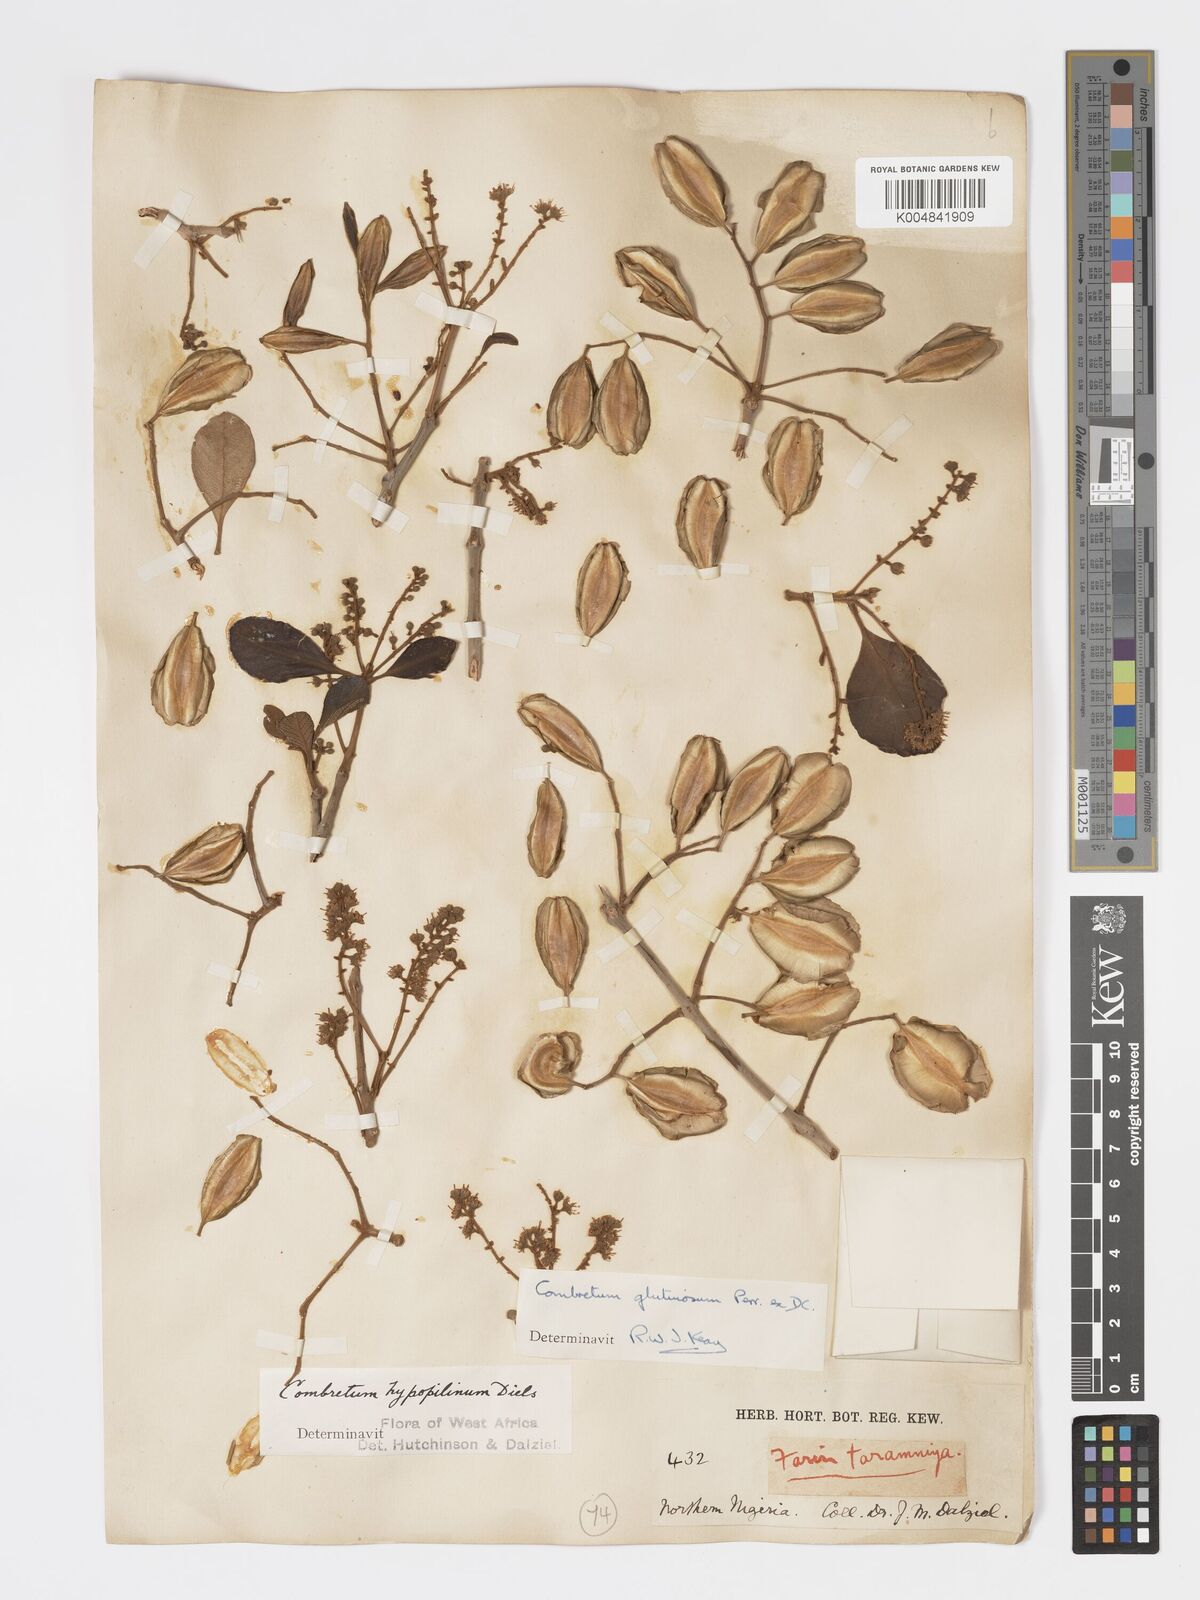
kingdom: Plantae
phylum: Tracheophyta
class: Magnoliopsida
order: Myrtales
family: Combretaceae
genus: Combretum
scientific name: Combretum
